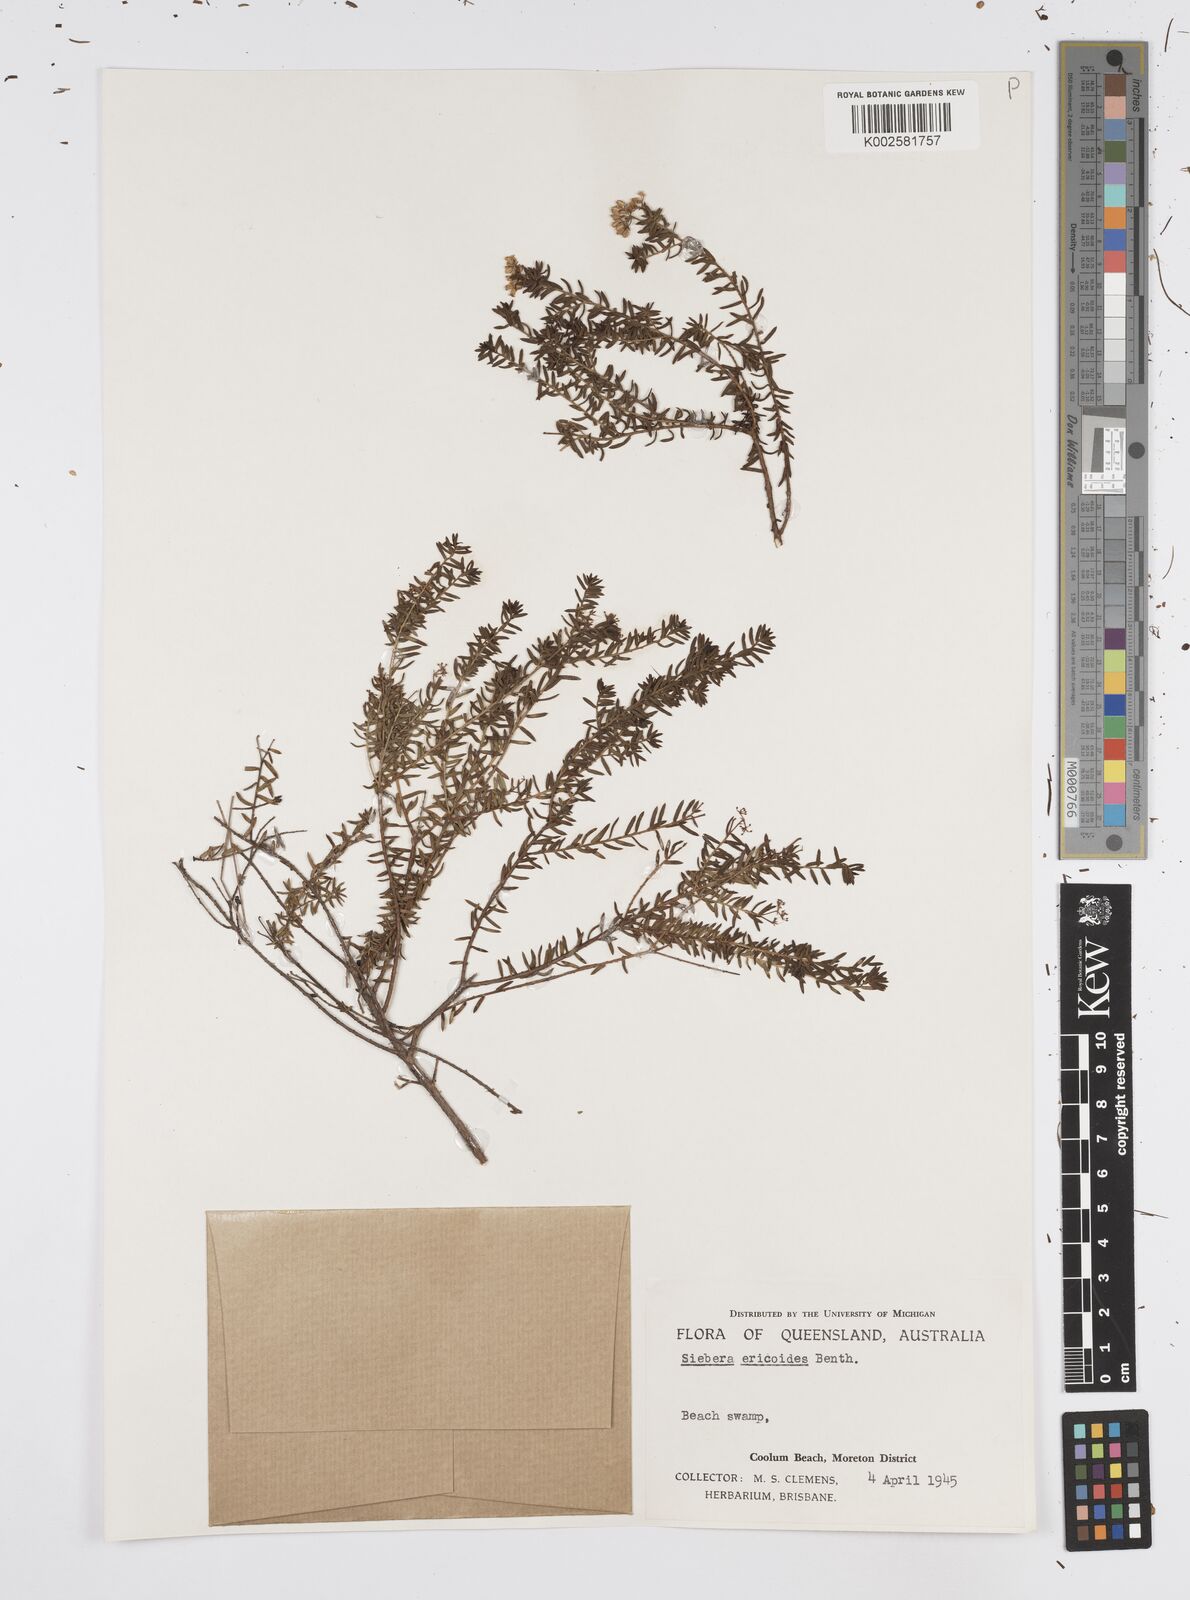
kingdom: Plantae
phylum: Tracheophyta
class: Magnoliopsida
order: Apiales
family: Apiaceae
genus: Platysace
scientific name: Platysace ericoides
